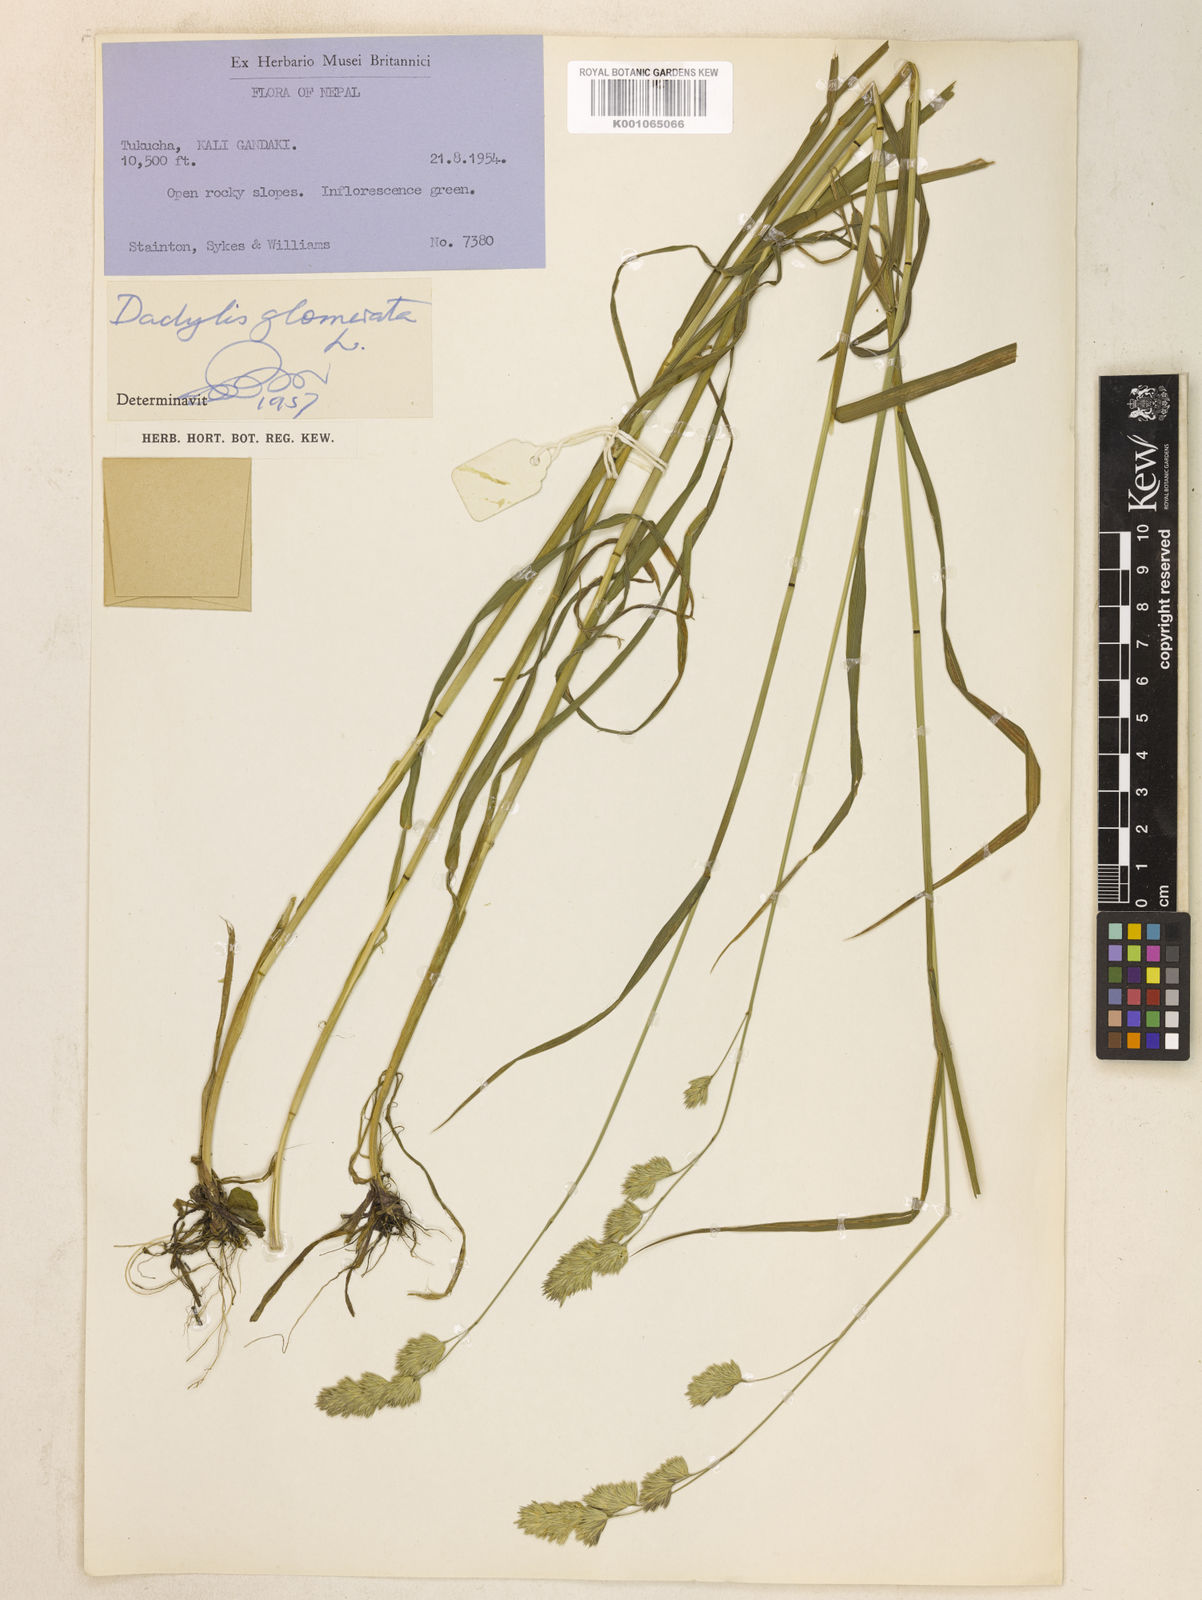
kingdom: Plantae
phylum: Tracheophyta
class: Liliopsida
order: Poales
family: Poaceae
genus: Dactylis
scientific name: Dactylis glomerata
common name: Orchardgrass
